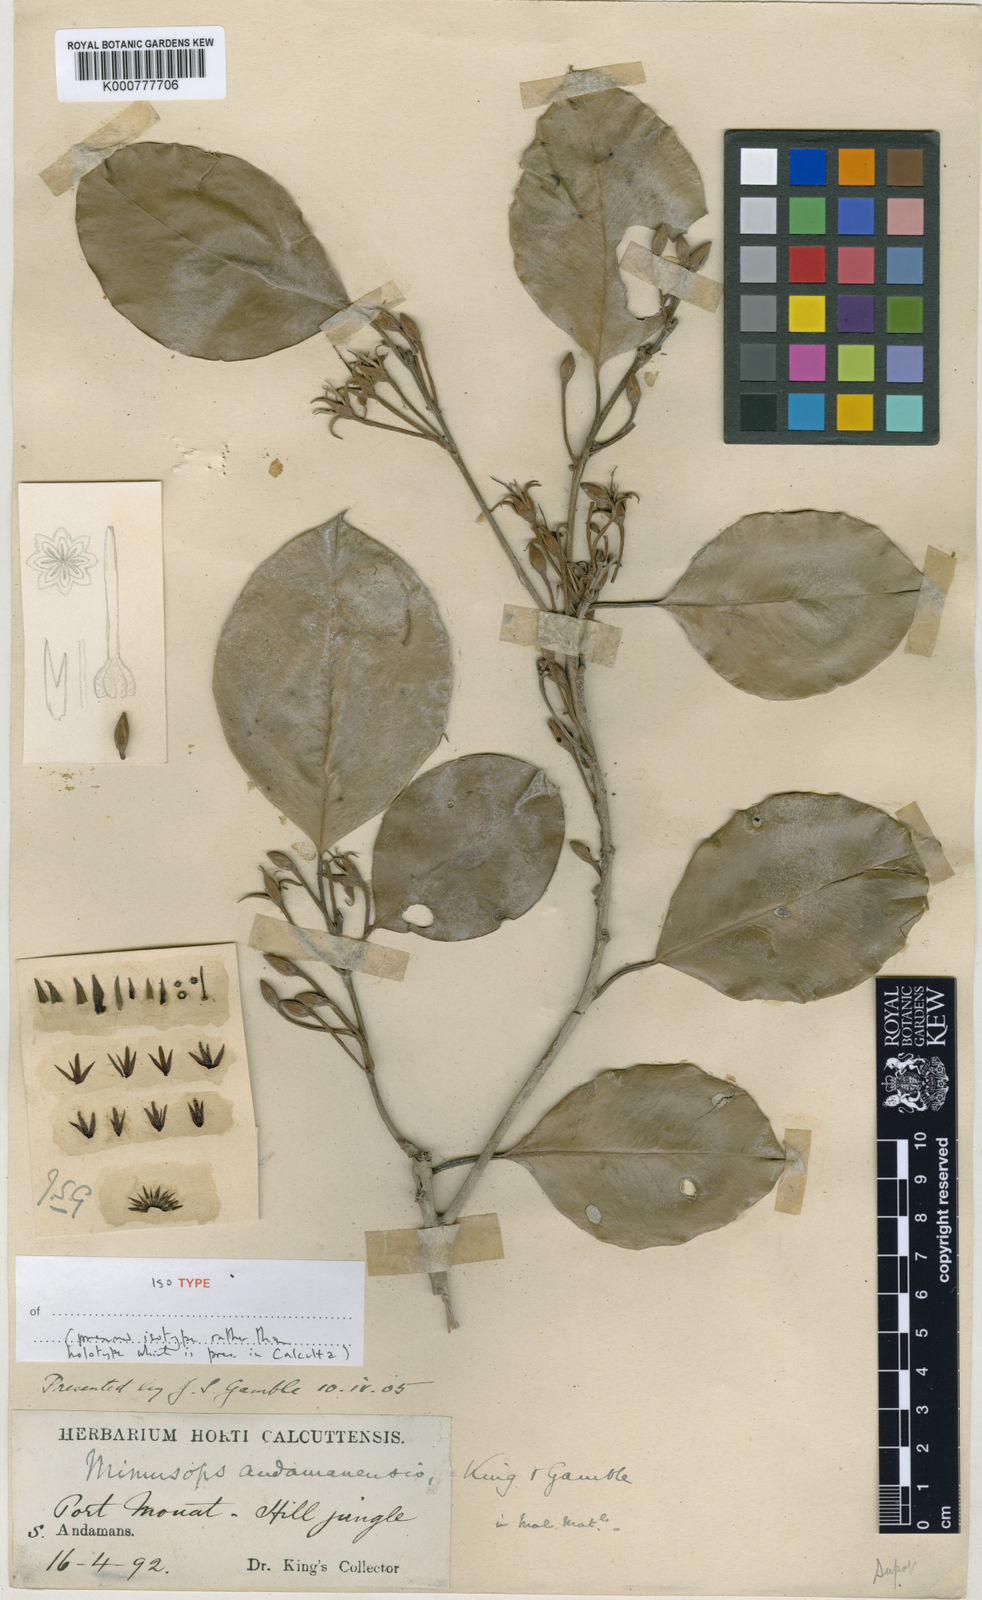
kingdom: Plantae
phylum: Tracheophyta
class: Magnoliopsida
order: Ericales
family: Sapotaceae
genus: Mimusops
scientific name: Mimusops andamanensis
